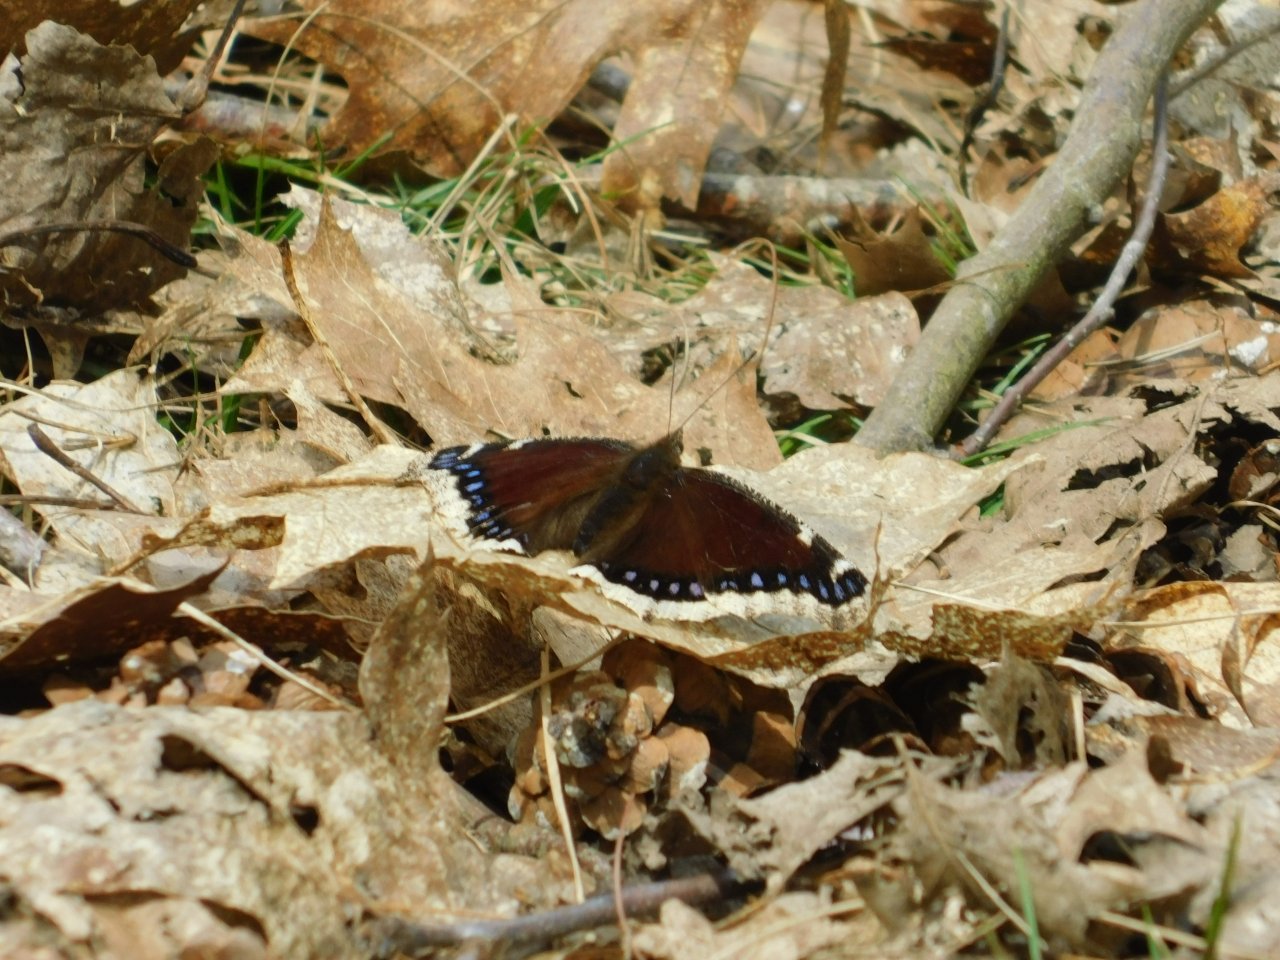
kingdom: Animalia
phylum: Arthropoda
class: Insecta
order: Lepidoptera
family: Nymphalidae
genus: Nymphalis
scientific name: Nymphalis antiopa
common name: Mourning Cloak
